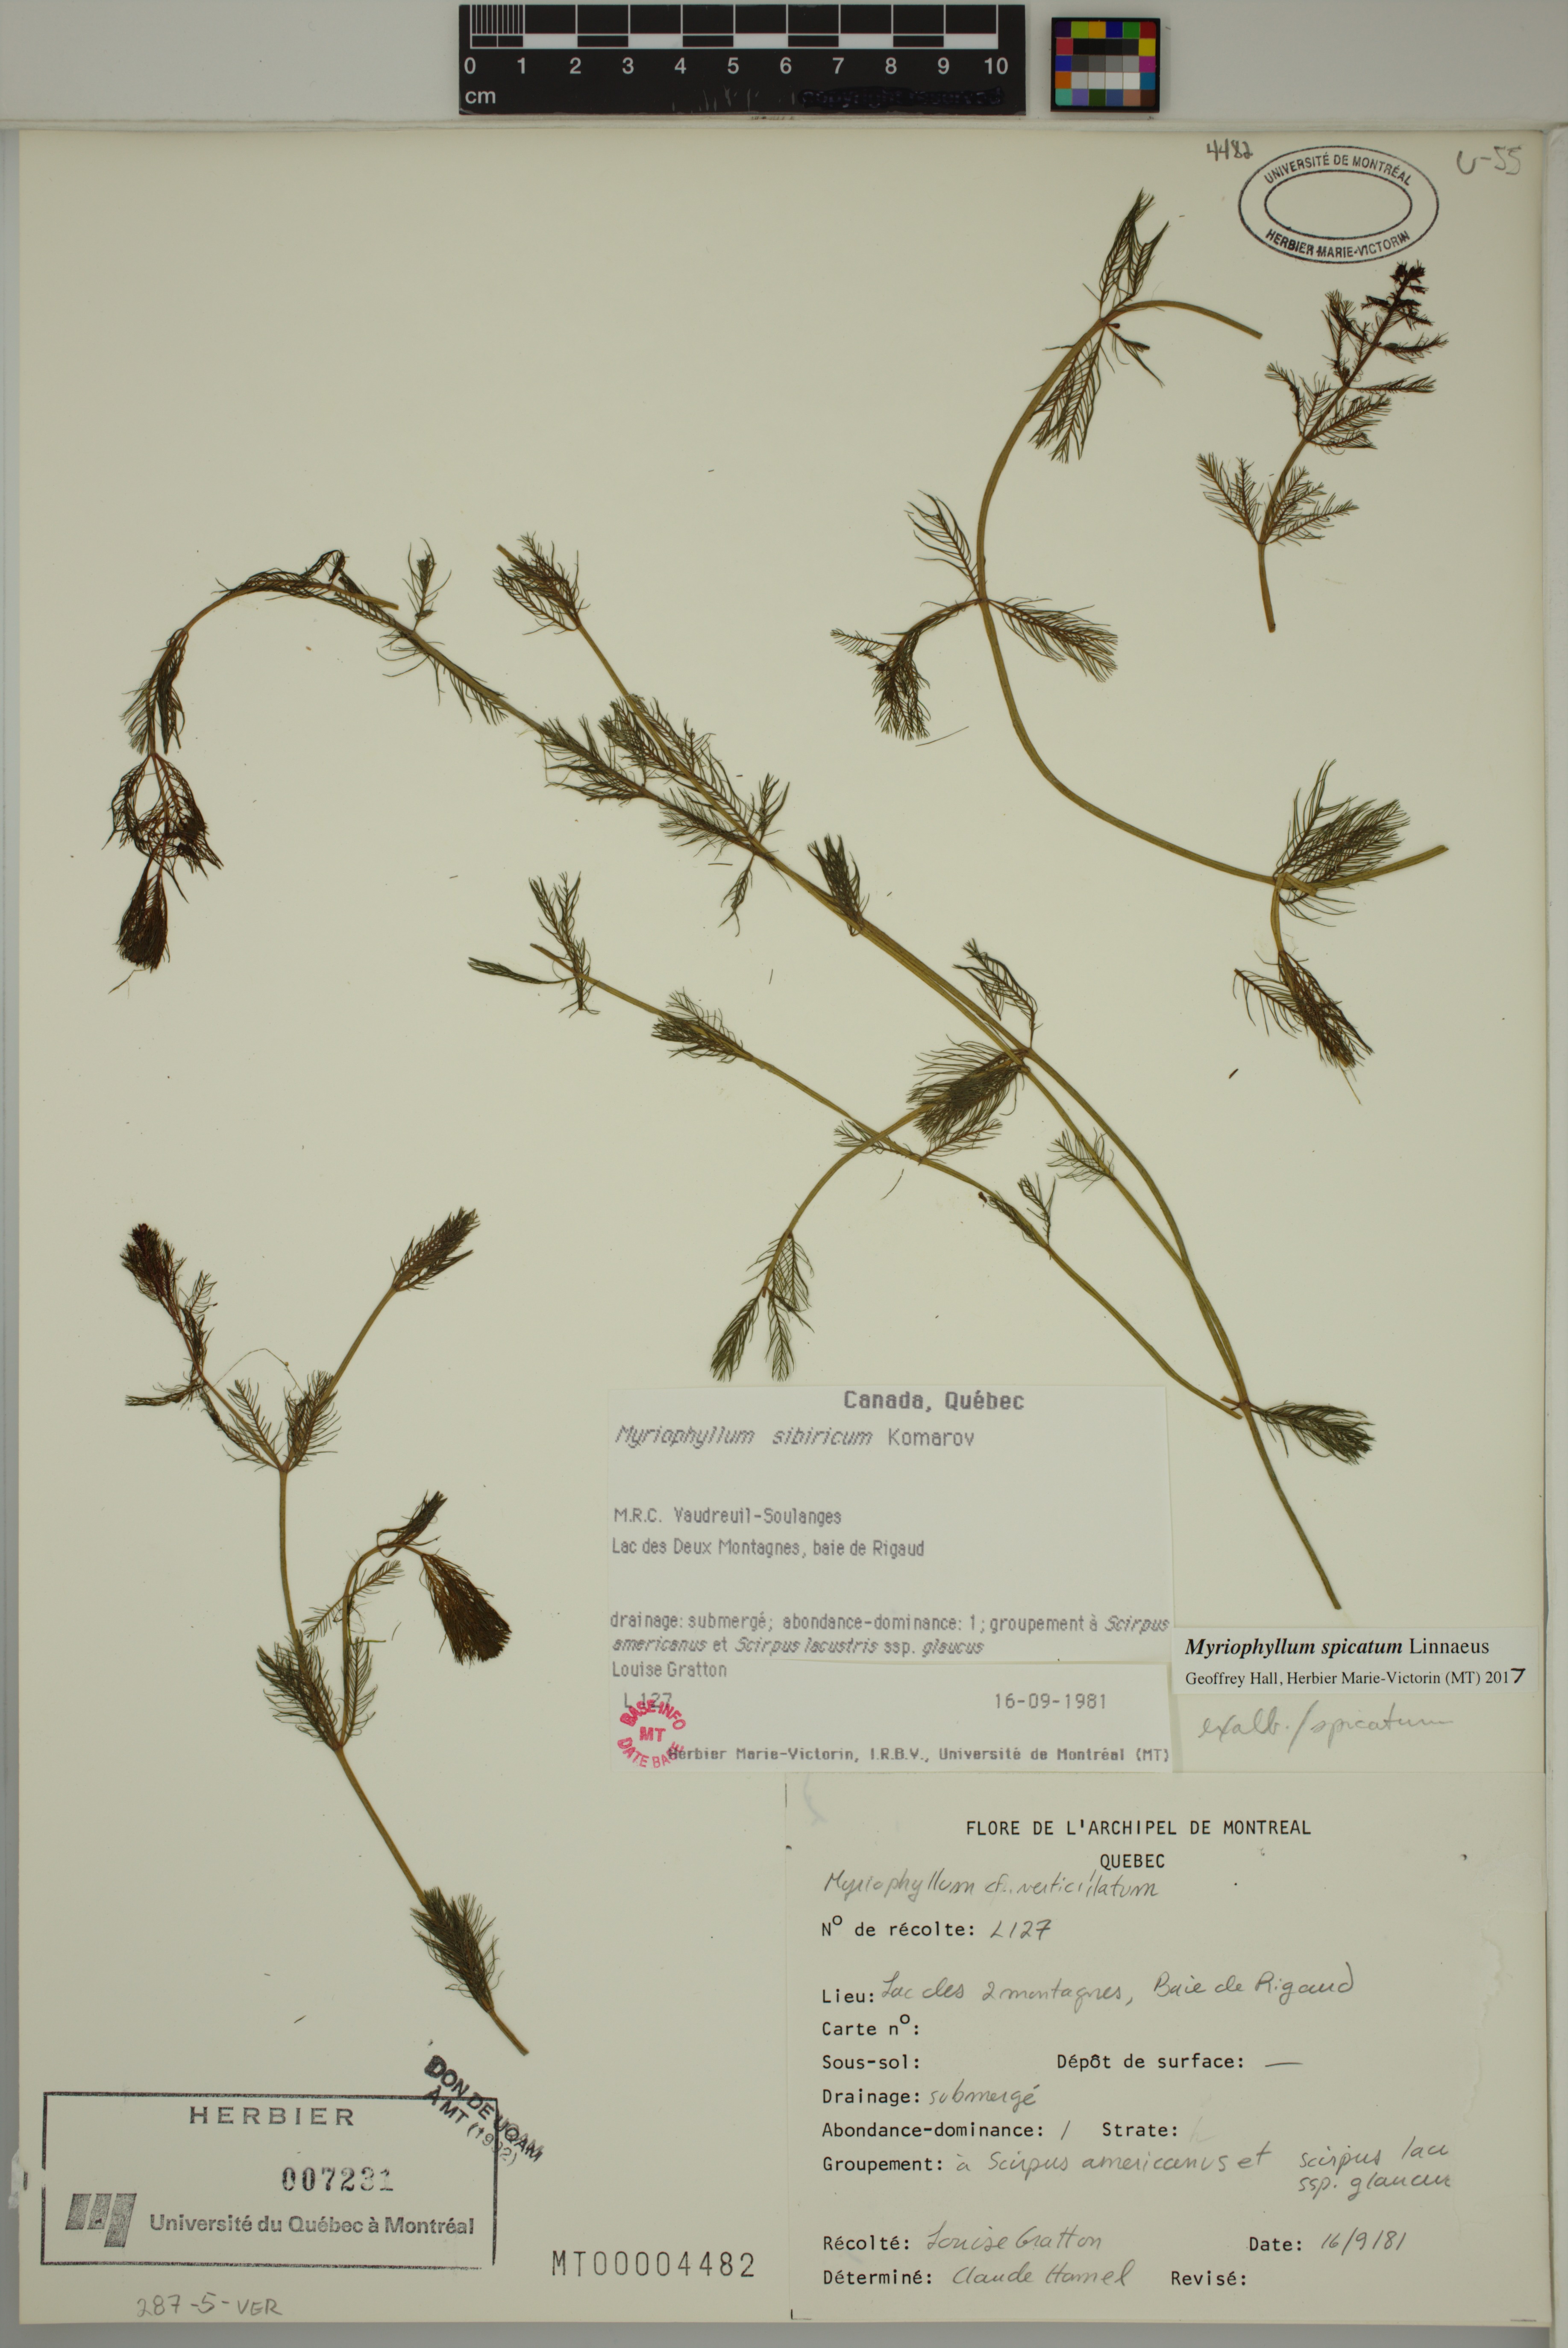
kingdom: Plantae
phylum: Tracheophyta
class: Magnoliopsida
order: Saxifragales
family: Haloragaceae
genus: Myriophyllum
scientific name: Myriophyllum spicatum
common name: Spiked water-milfoil
